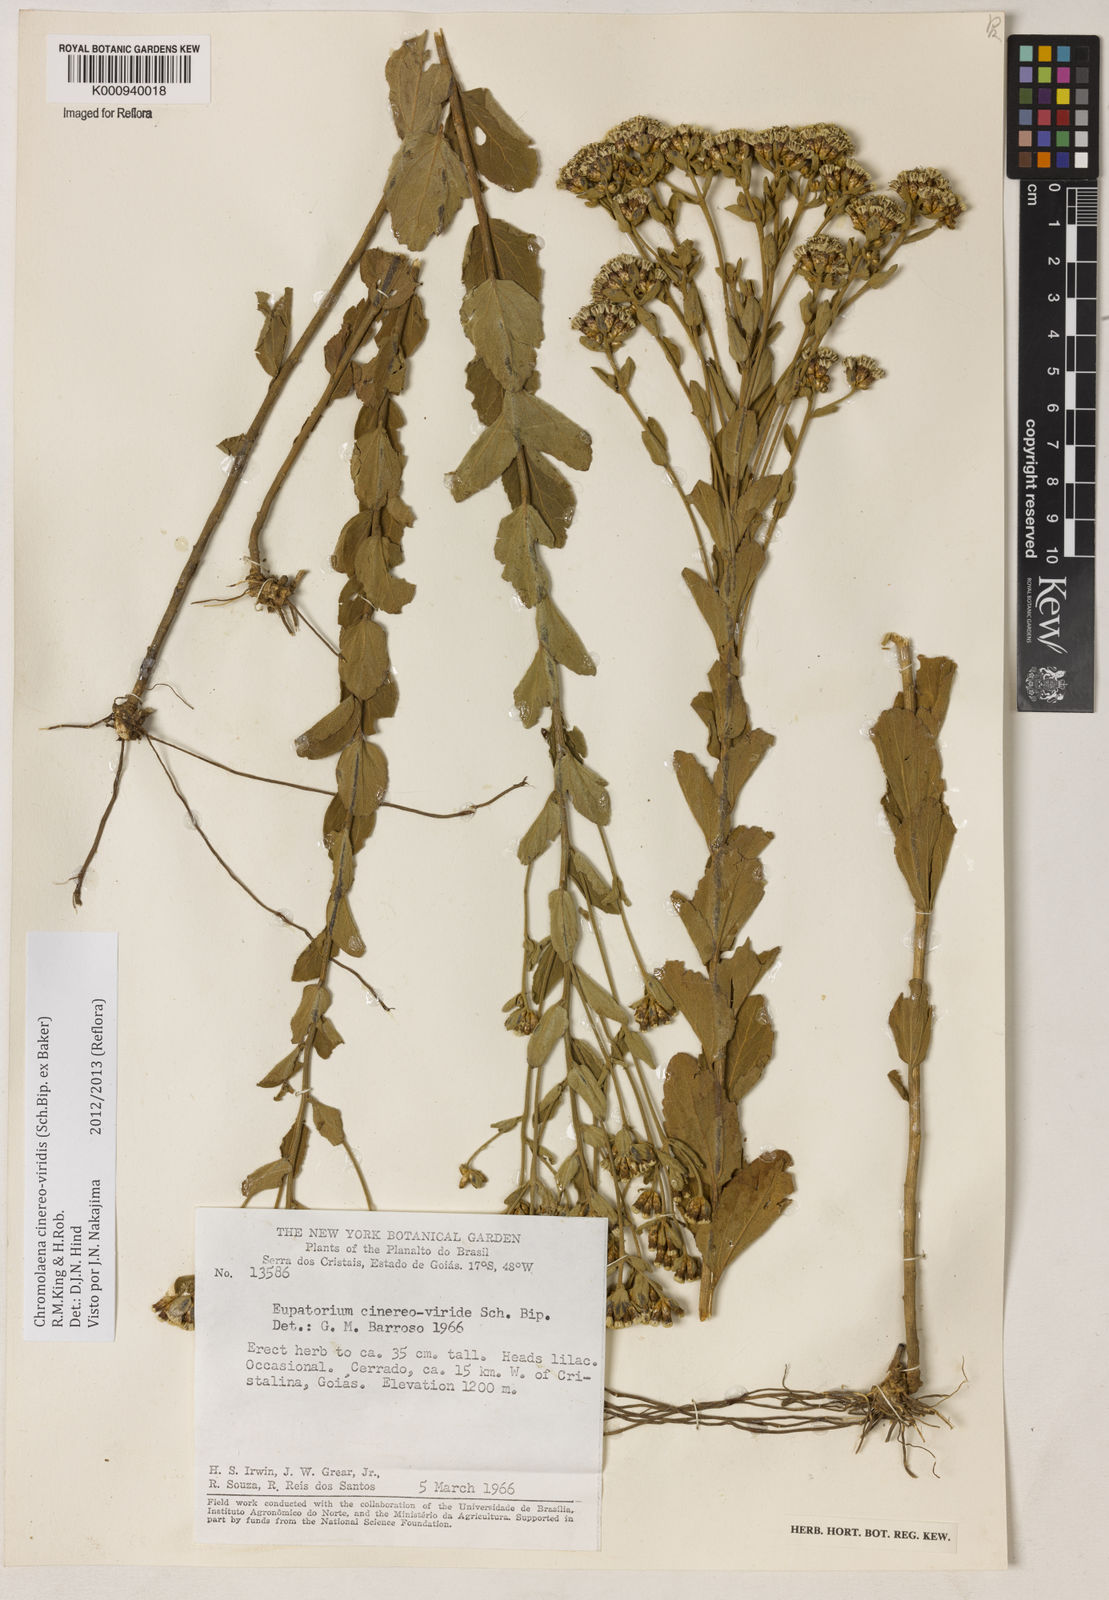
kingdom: Plantae
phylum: Tracheophyta
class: Magnoliopsida
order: Asterales
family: Asteraceae
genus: Chromolaena
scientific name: Chromolaena cinereoviridis
